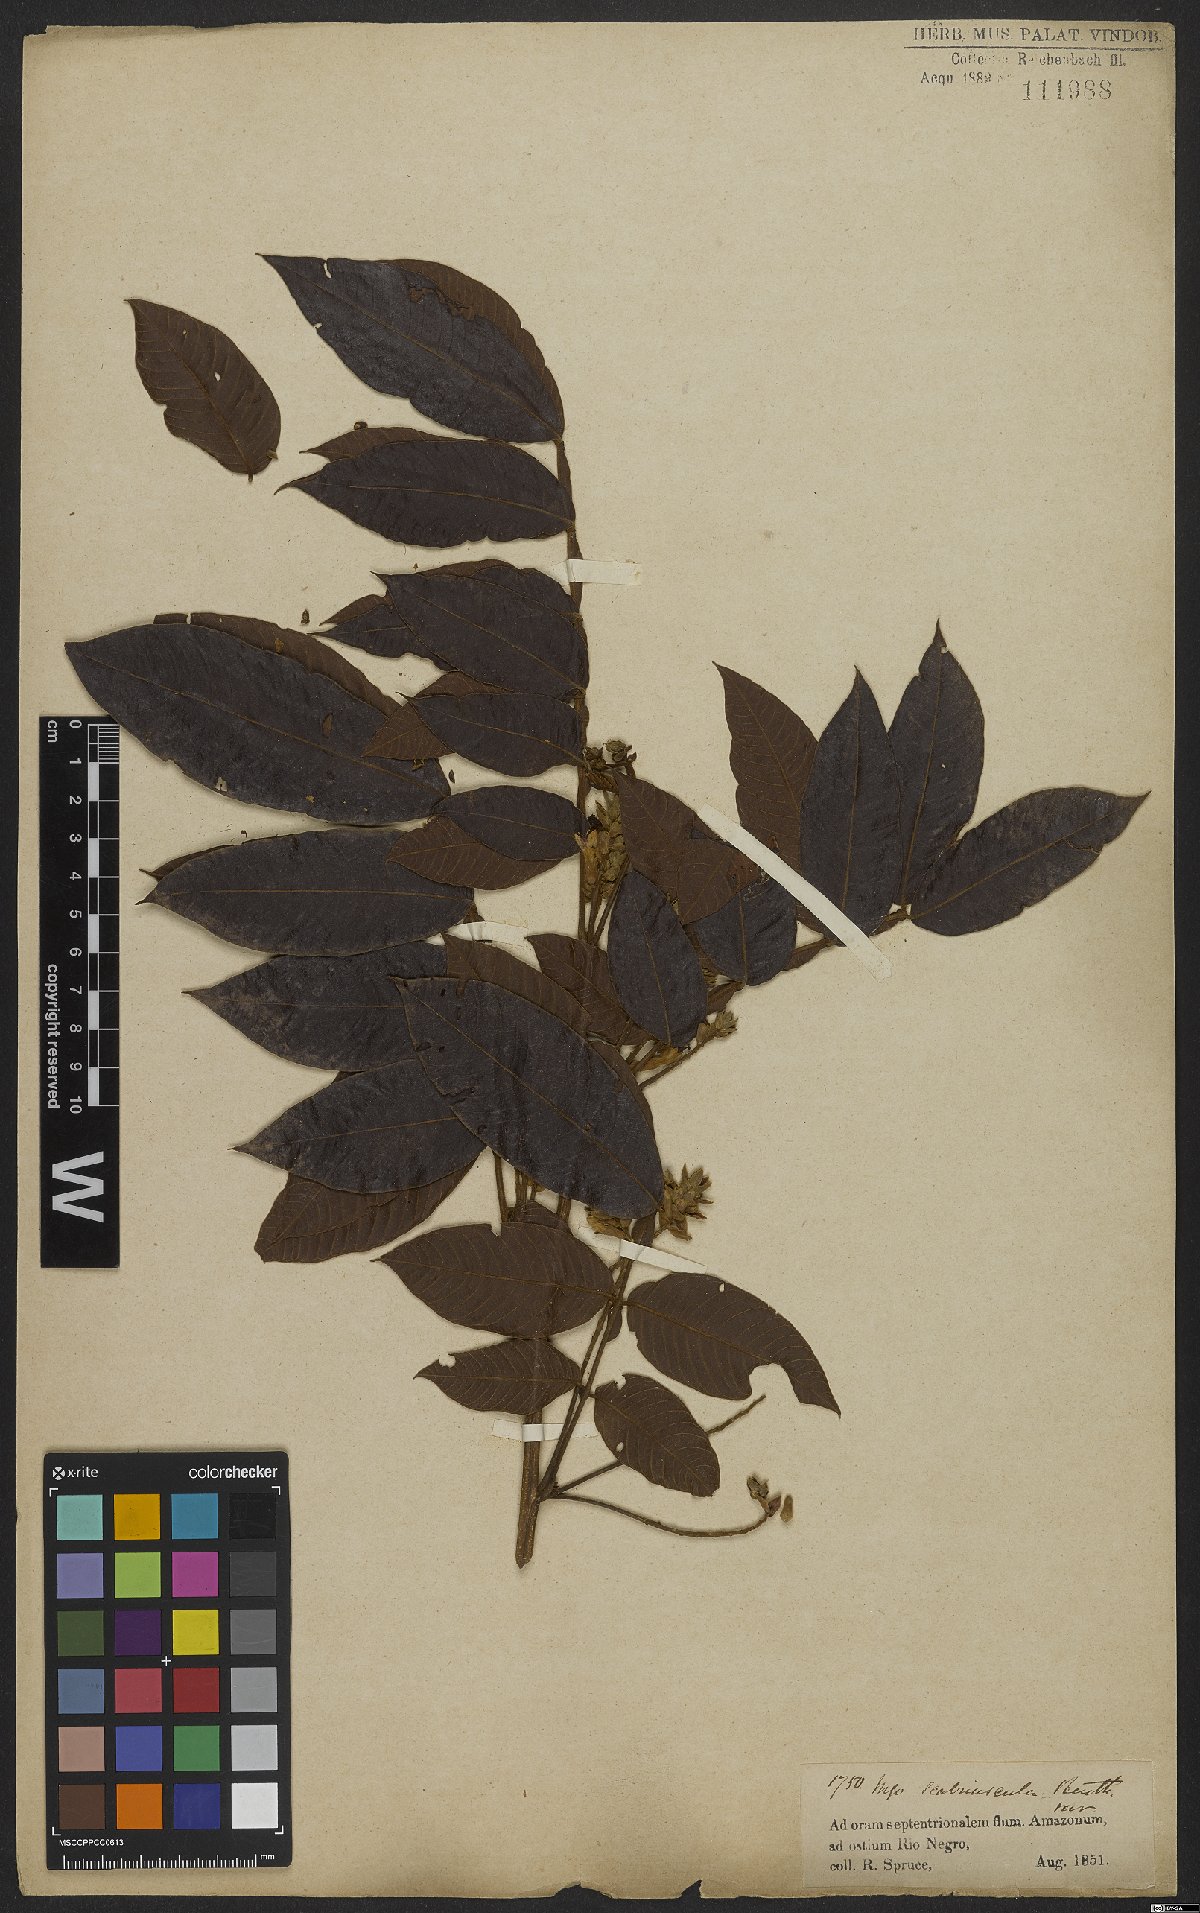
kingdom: Plantae
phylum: Tracheophyta
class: Magnoliopsida
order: Fabales
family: Fabaceae
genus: Inga
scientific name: Inga edulis
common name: Ice cream bean
